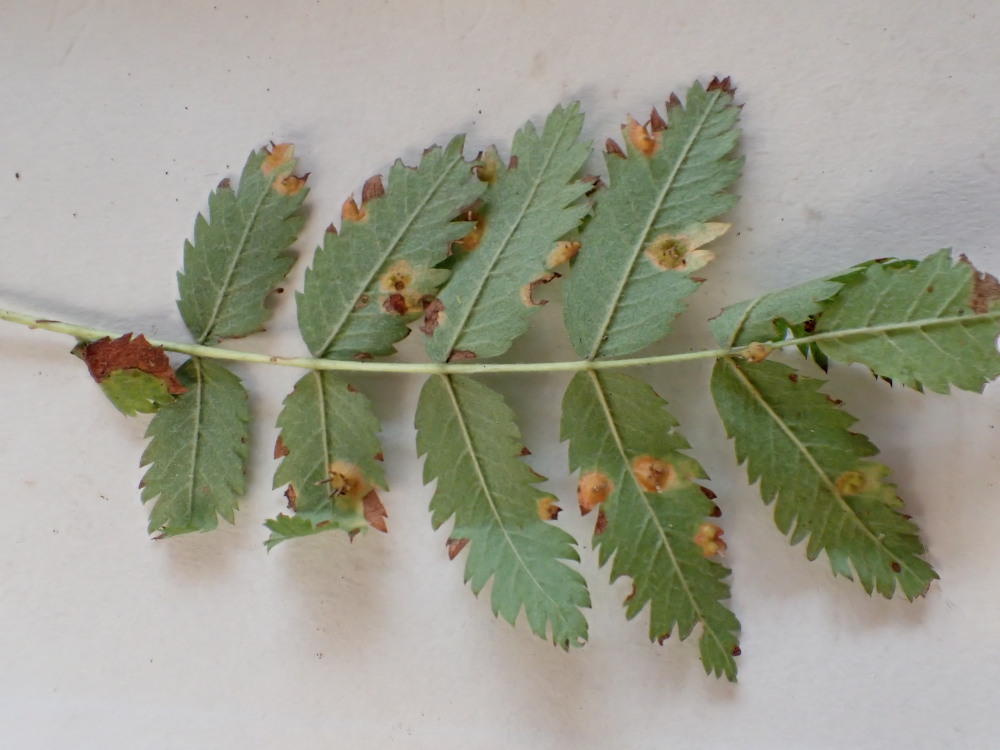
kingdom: Fungi
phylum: Basidiomycota
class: Pucciniomycetes
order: Pucciniales
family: Gymnosporangiaceae
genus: Gymnosporangium
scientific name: Gymnosporangium cornutum
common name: rønnehorn-bævrerust
